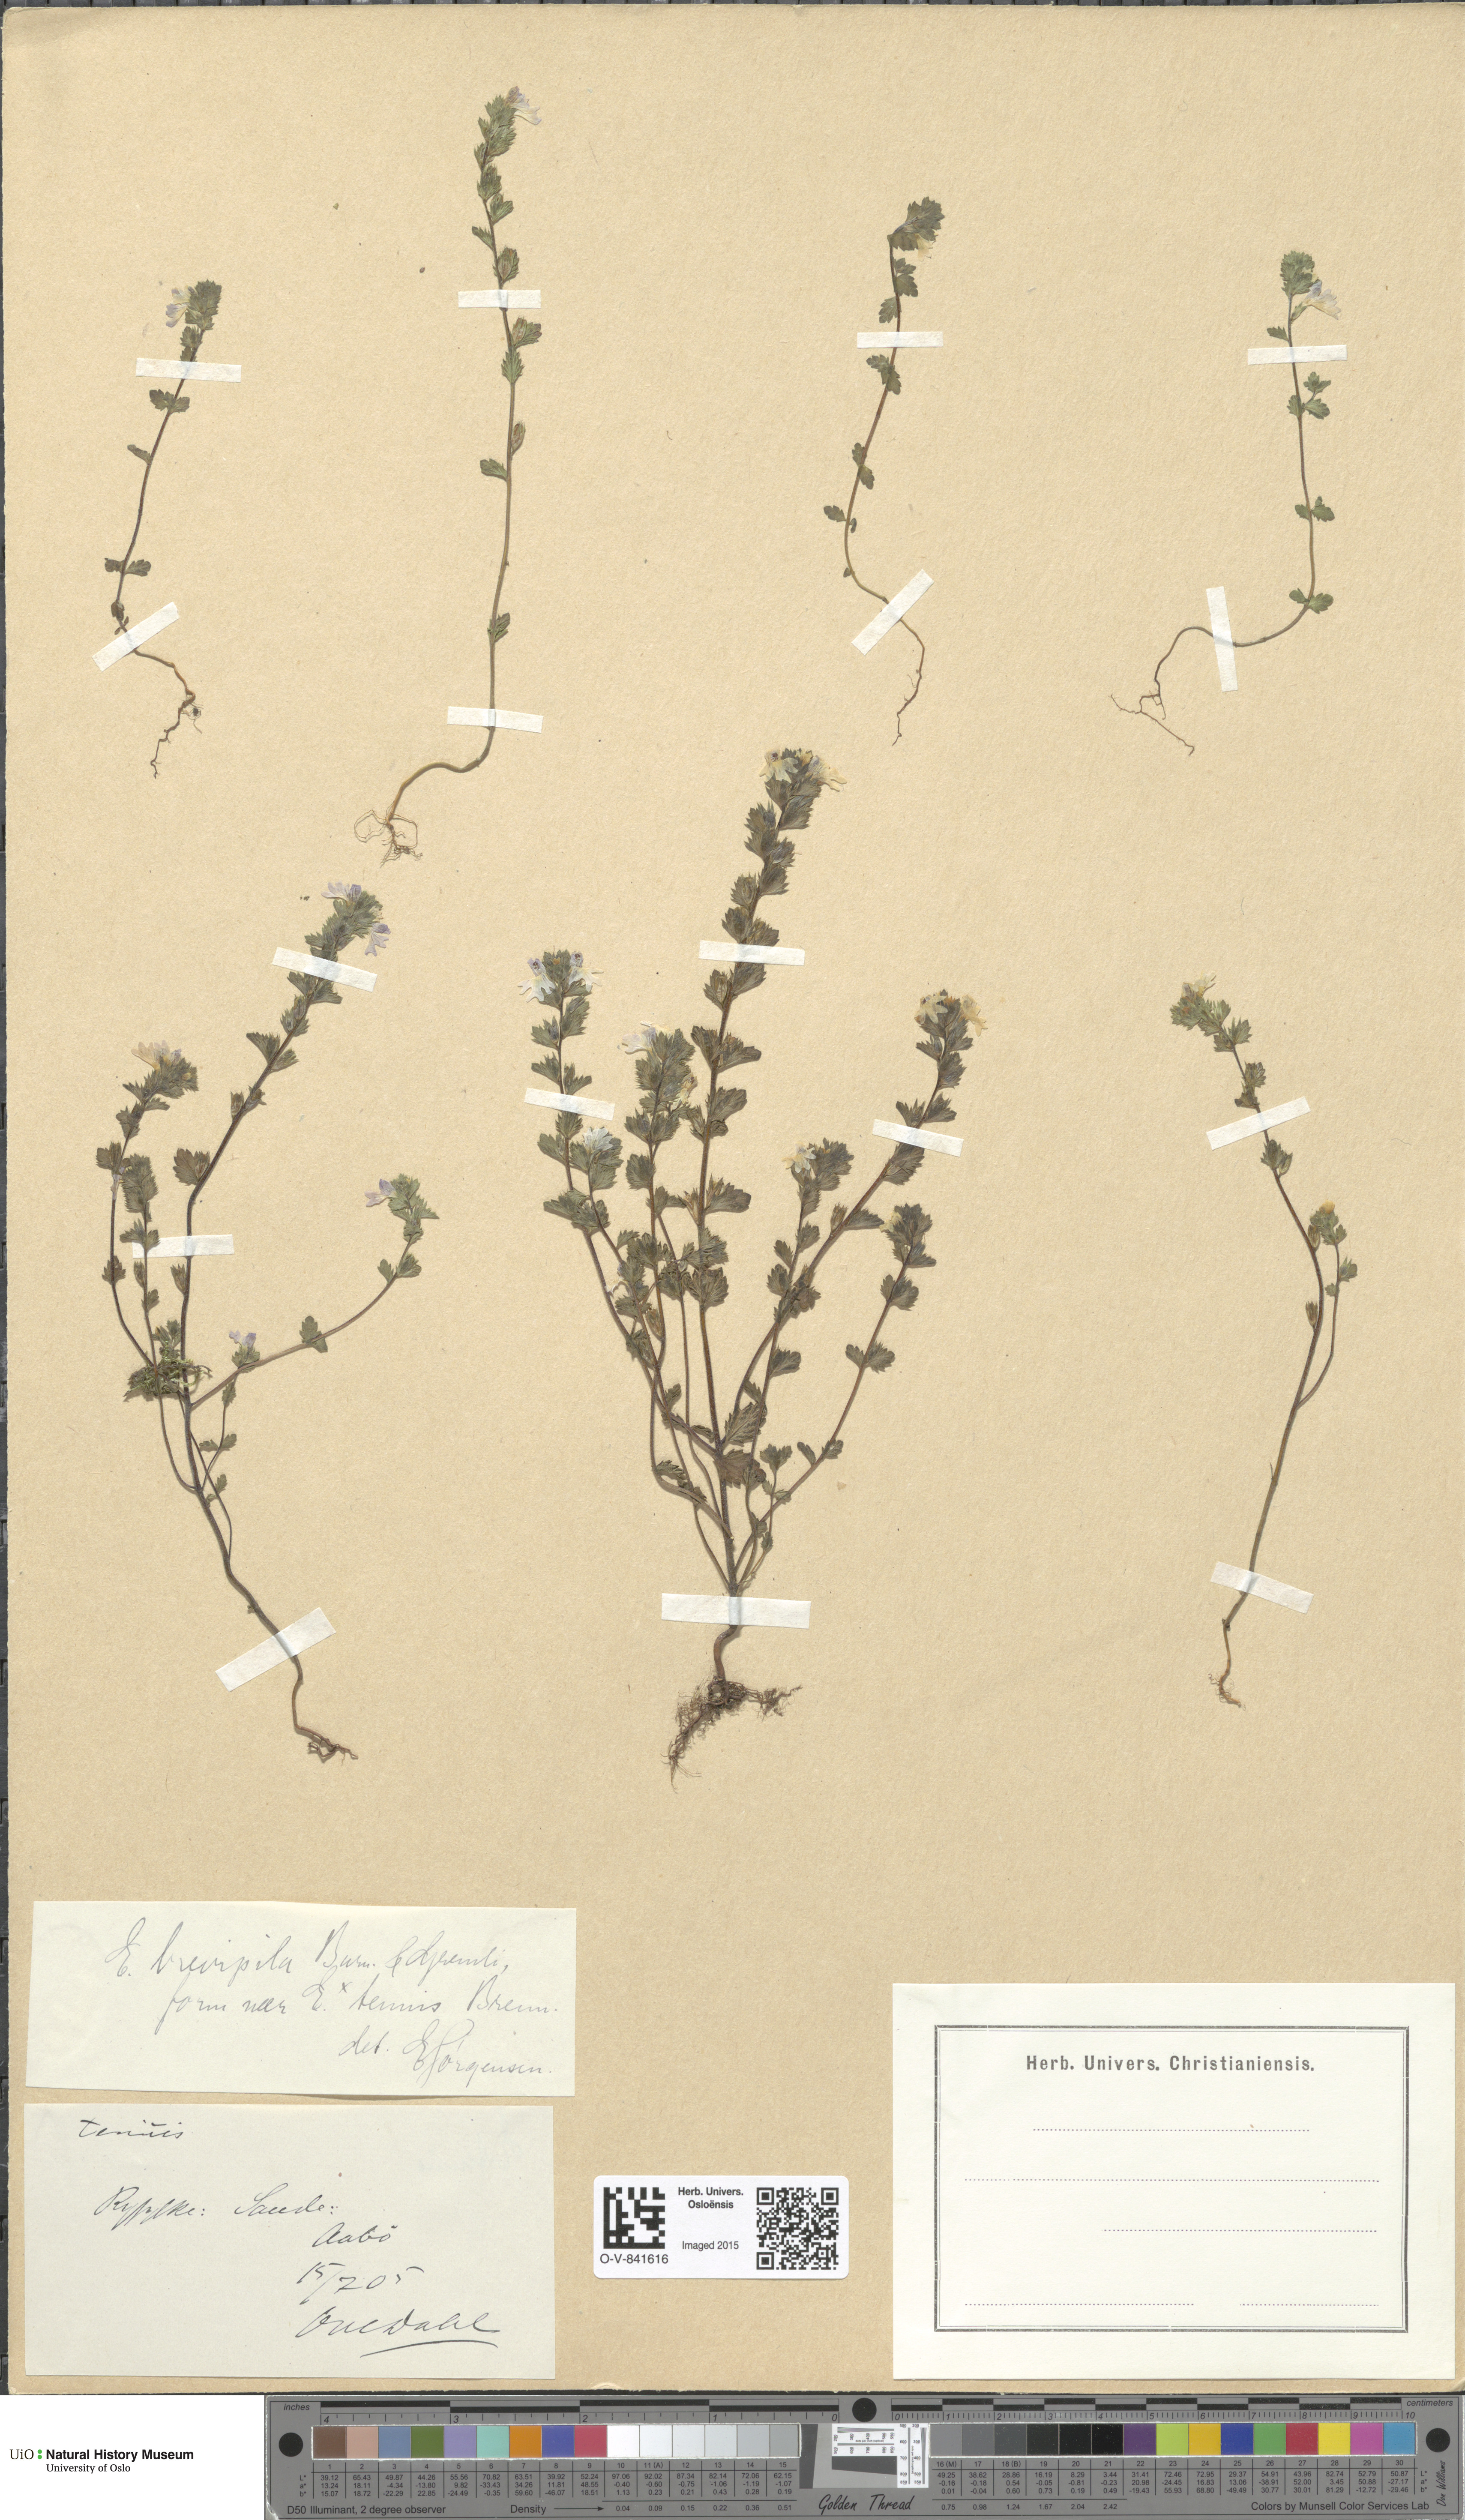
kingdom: Plantae
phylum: Tracheophyta
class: Magnoliopsida
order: Lamiales
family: Orobanchaceae
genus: Euphrasia
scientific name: Euphrasia vernalis
